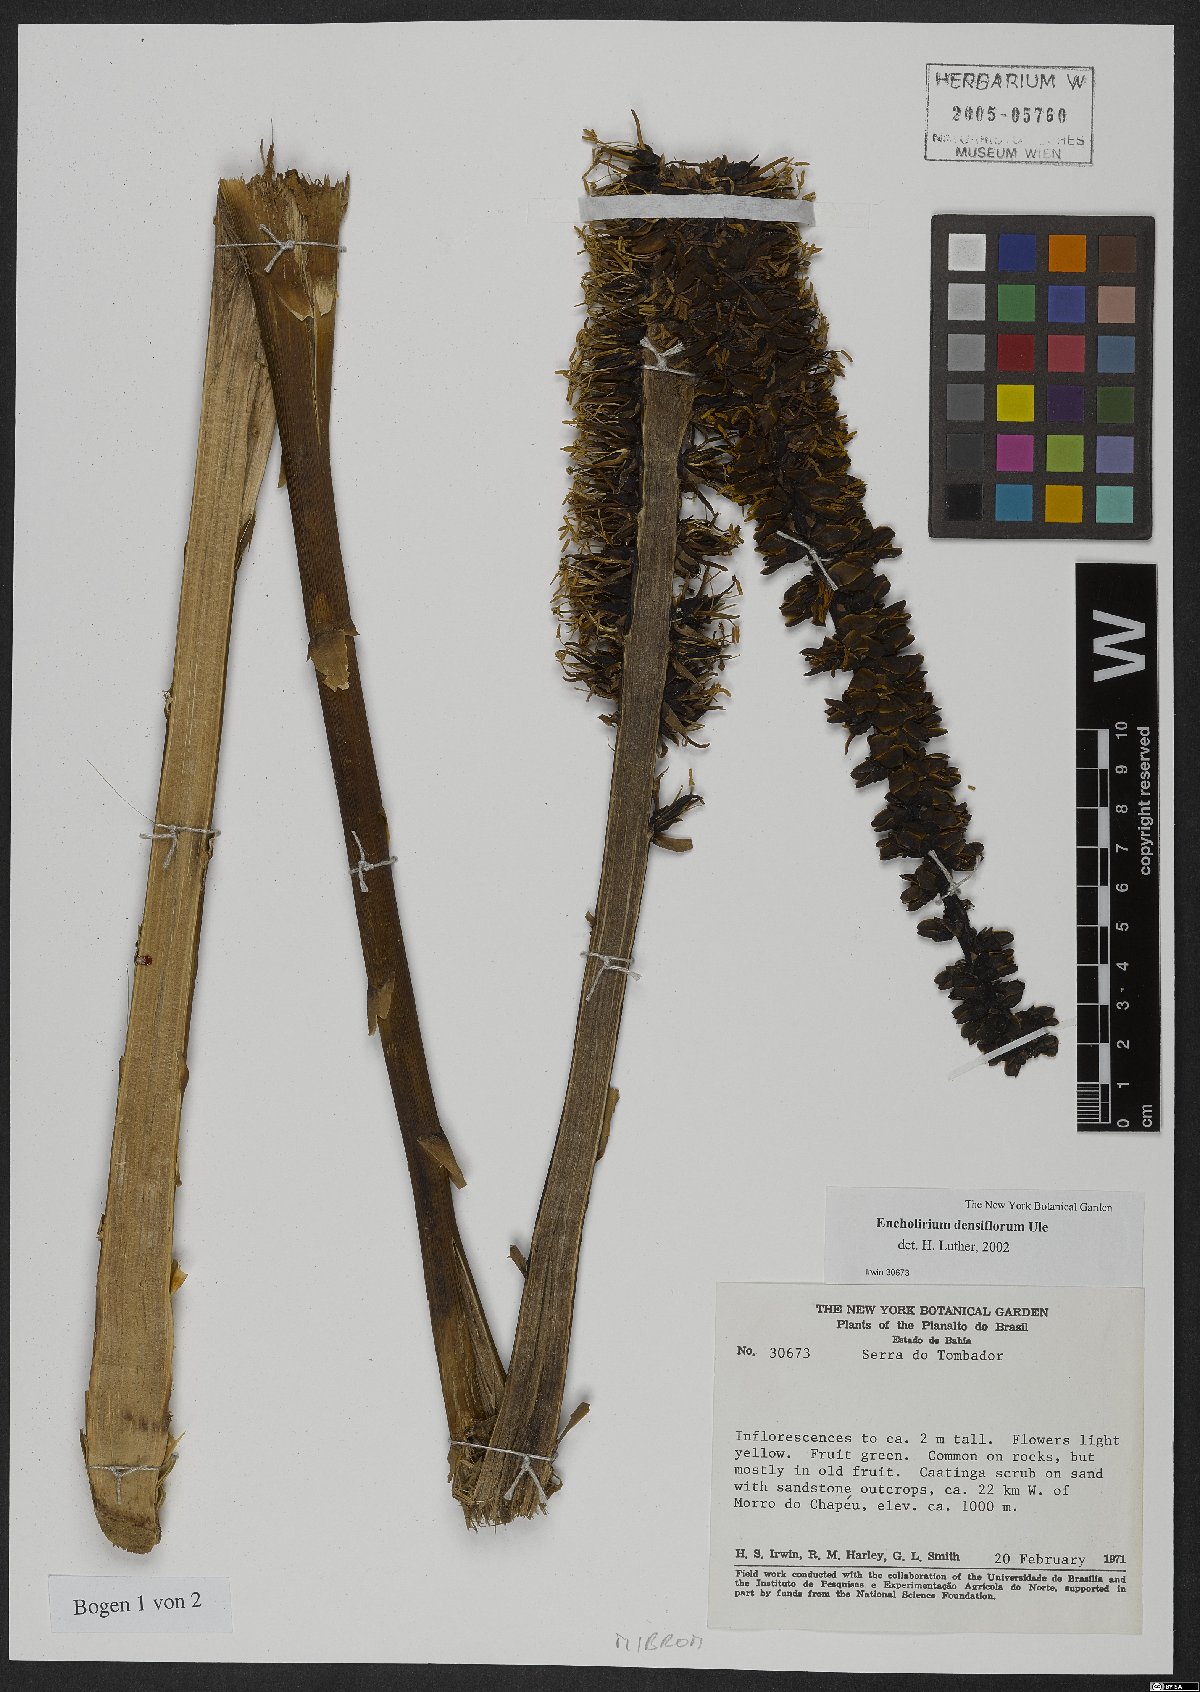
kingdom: Plantae
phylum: Tracheophyta
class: Liliopsida
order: Poales
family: Bromeliaceae
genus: Encholirium
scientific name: Encholirium spectabile
